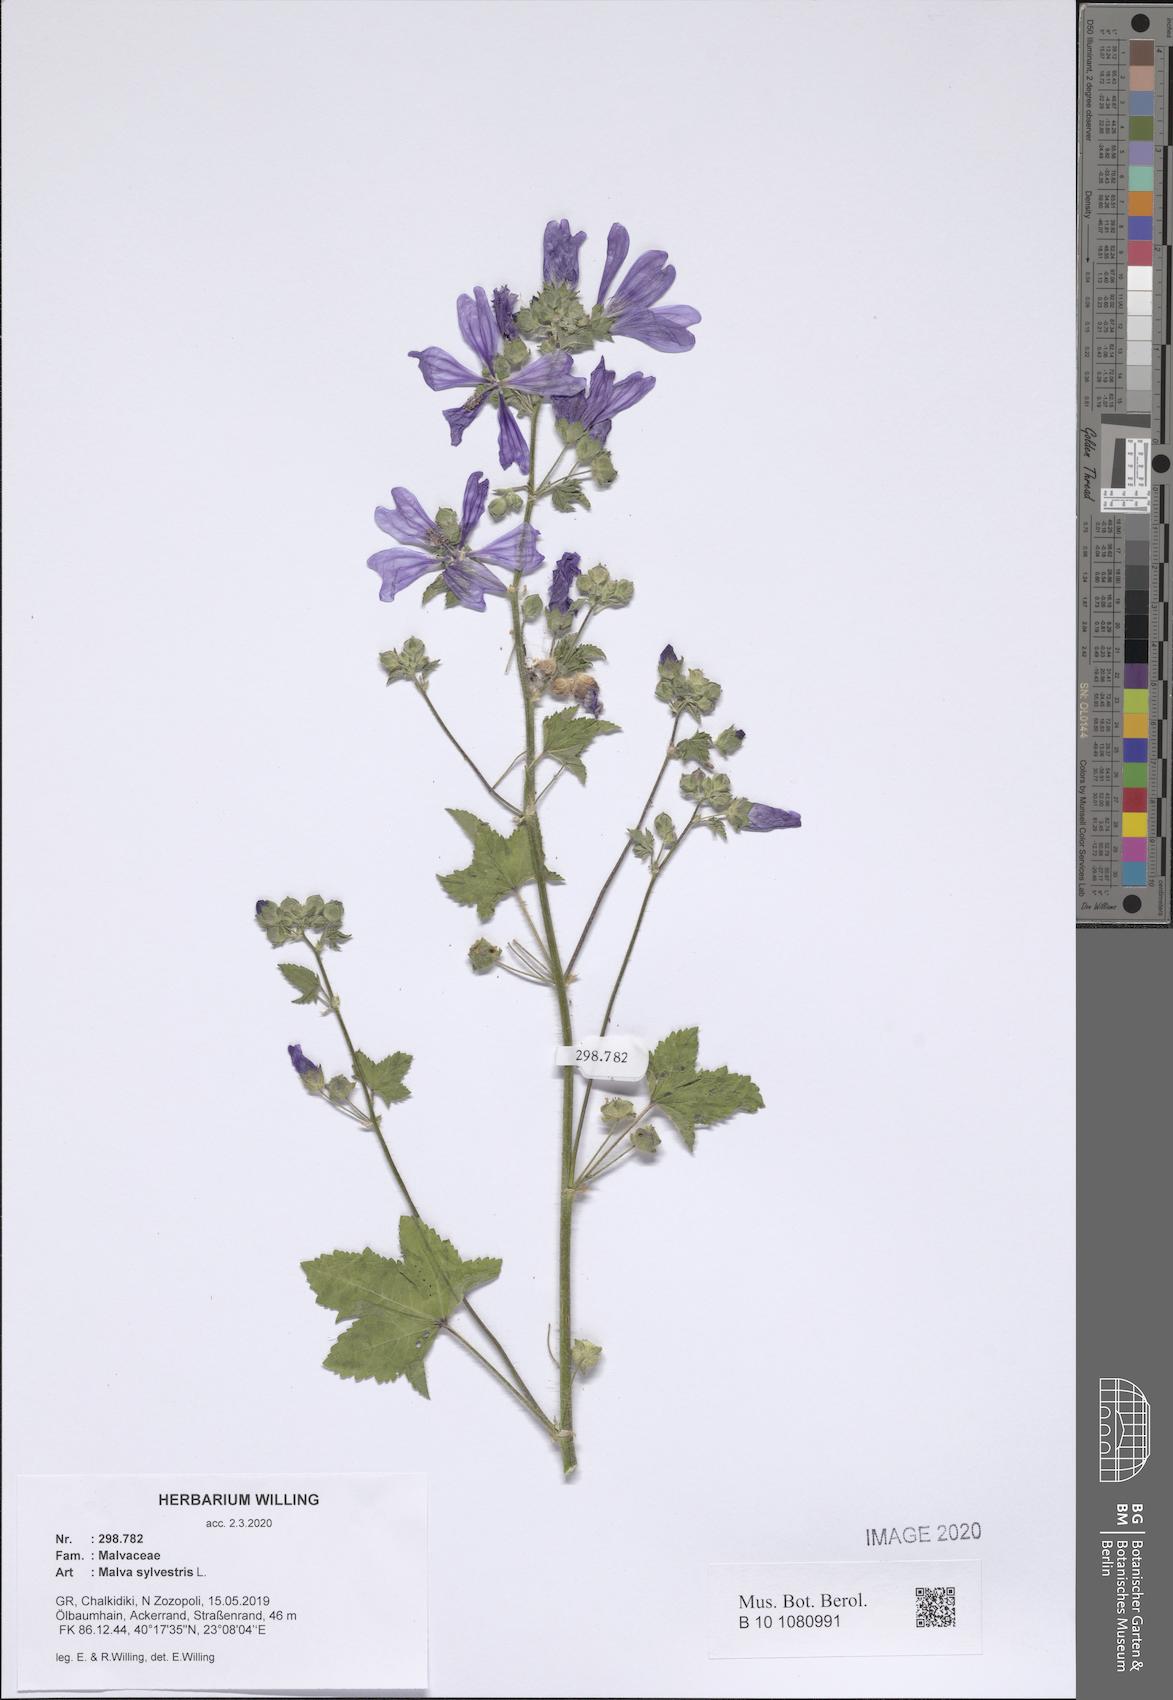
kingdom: Plantae
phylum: Tracheophyta
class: Magnoliopsida
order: Malvales
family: Malvaceae
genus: Malva
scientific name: Malva sylvestris
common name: Common mallow
